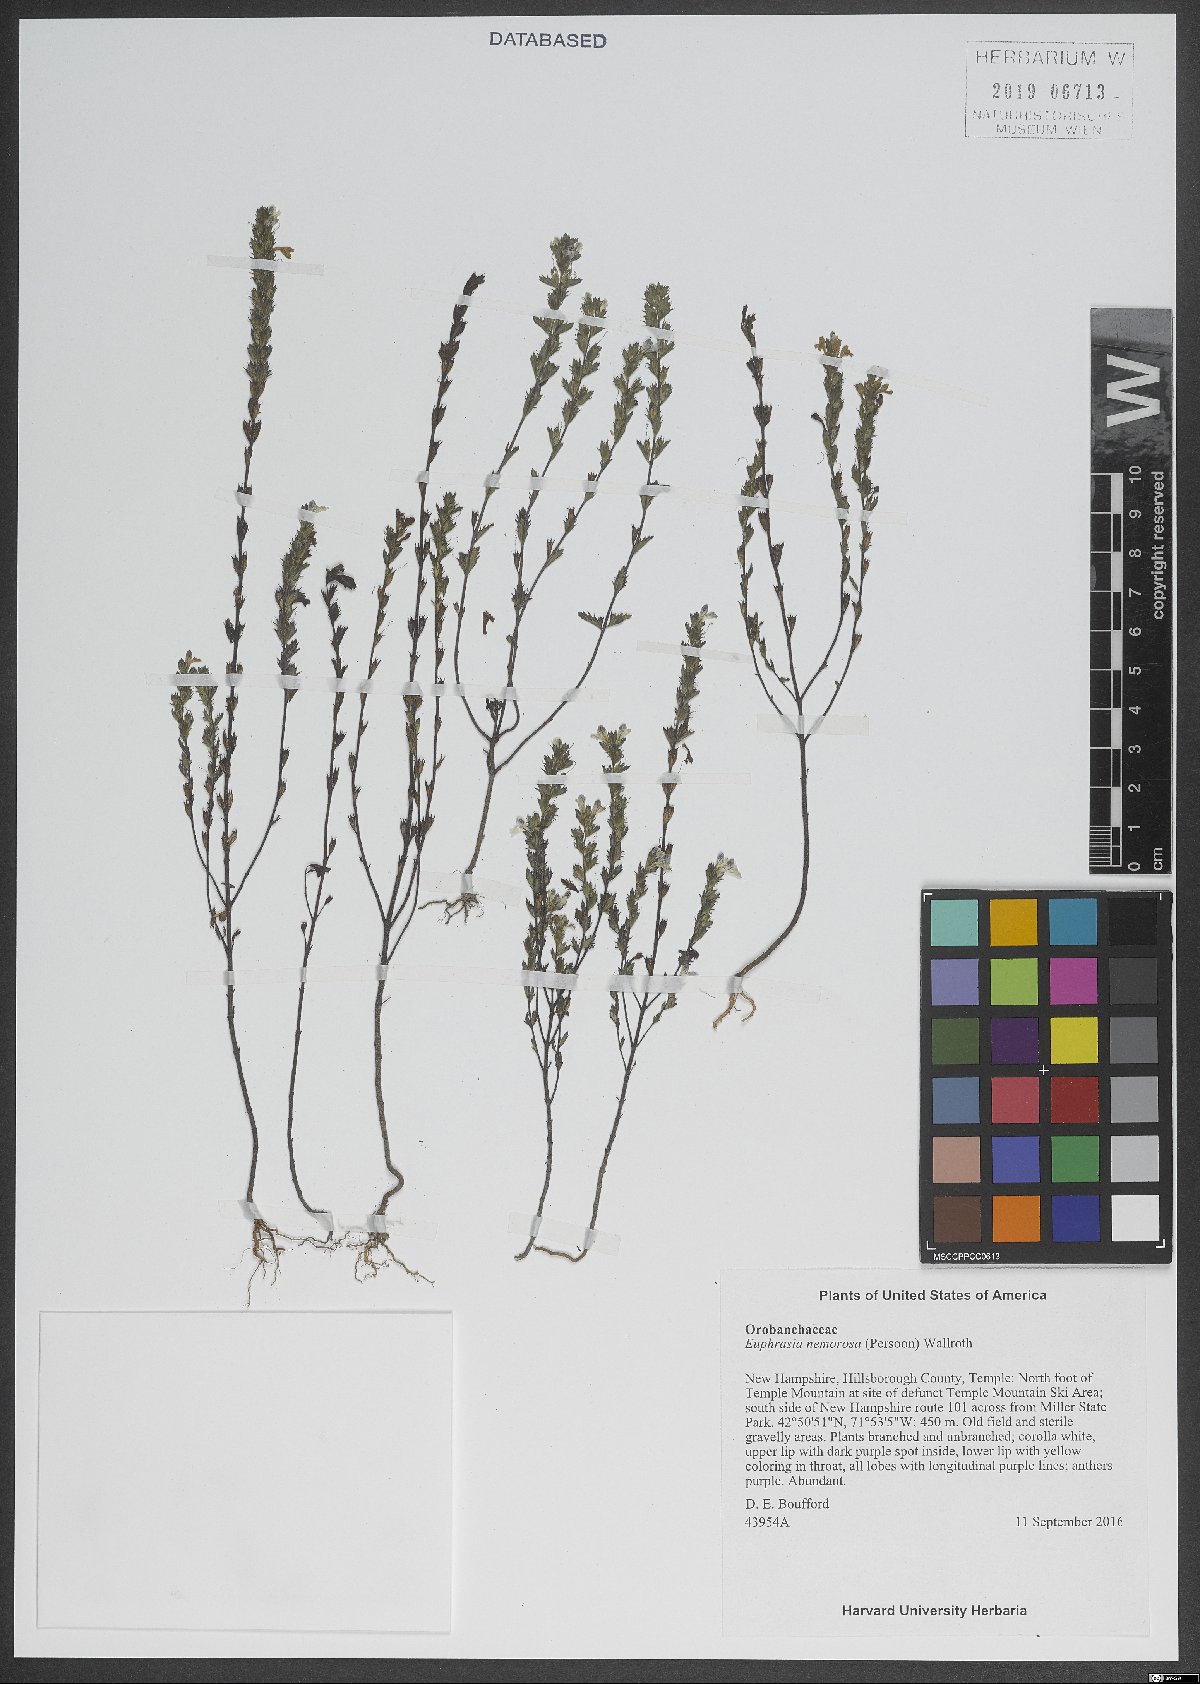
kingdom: Plantae
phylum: Tracheophyta
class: Magnoliopsida
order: Lamiales
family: Orobanchaceae
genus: Euphrasia
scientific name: Euphrasia nemorosa
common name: Common eyebright
